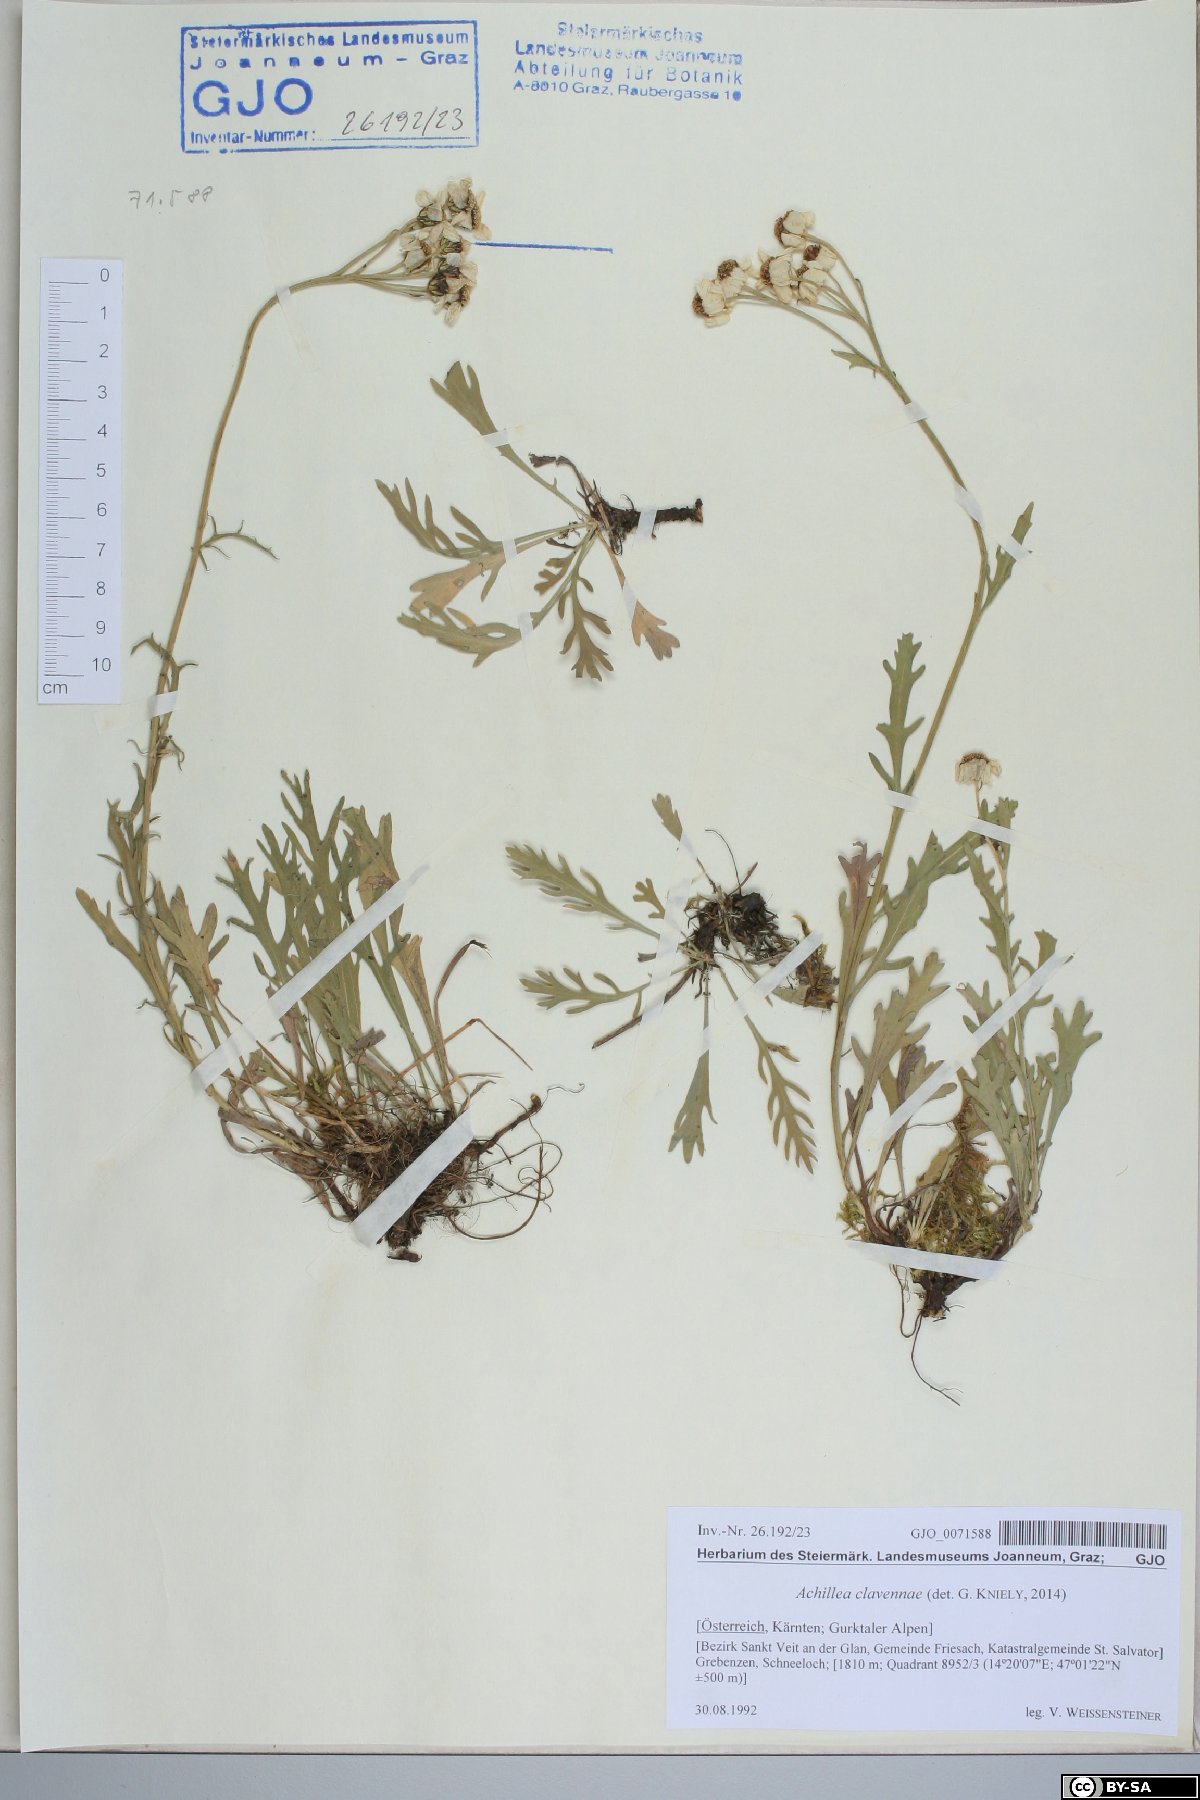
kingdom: Plantae
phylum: Tracheophyta
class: Magnoliopsida
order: Asterales
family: Asteraceae
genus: Achillea
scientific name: Achillea clavennae
